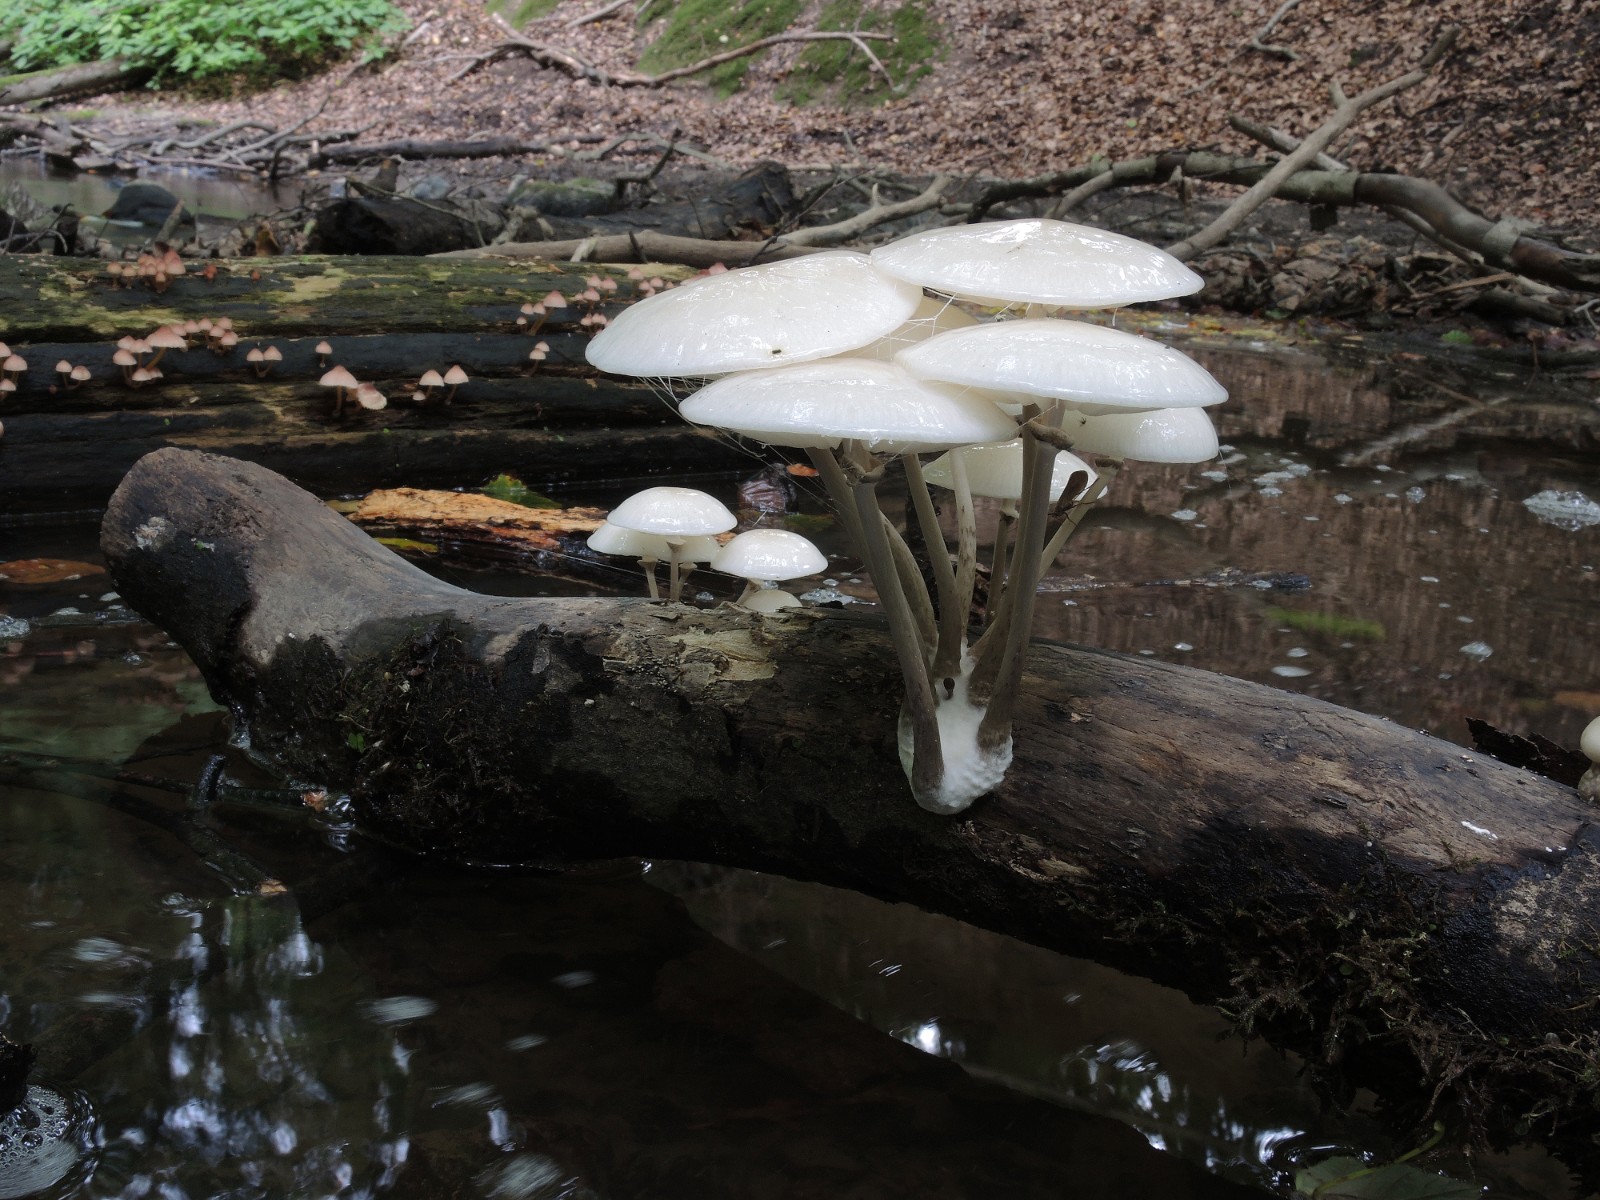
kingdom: Fungi
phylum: Basidiomycota
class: Agaricomycetes
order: Agaricales
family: Physalacriaceae
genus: Mucidula
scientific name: Mucidula mucida
